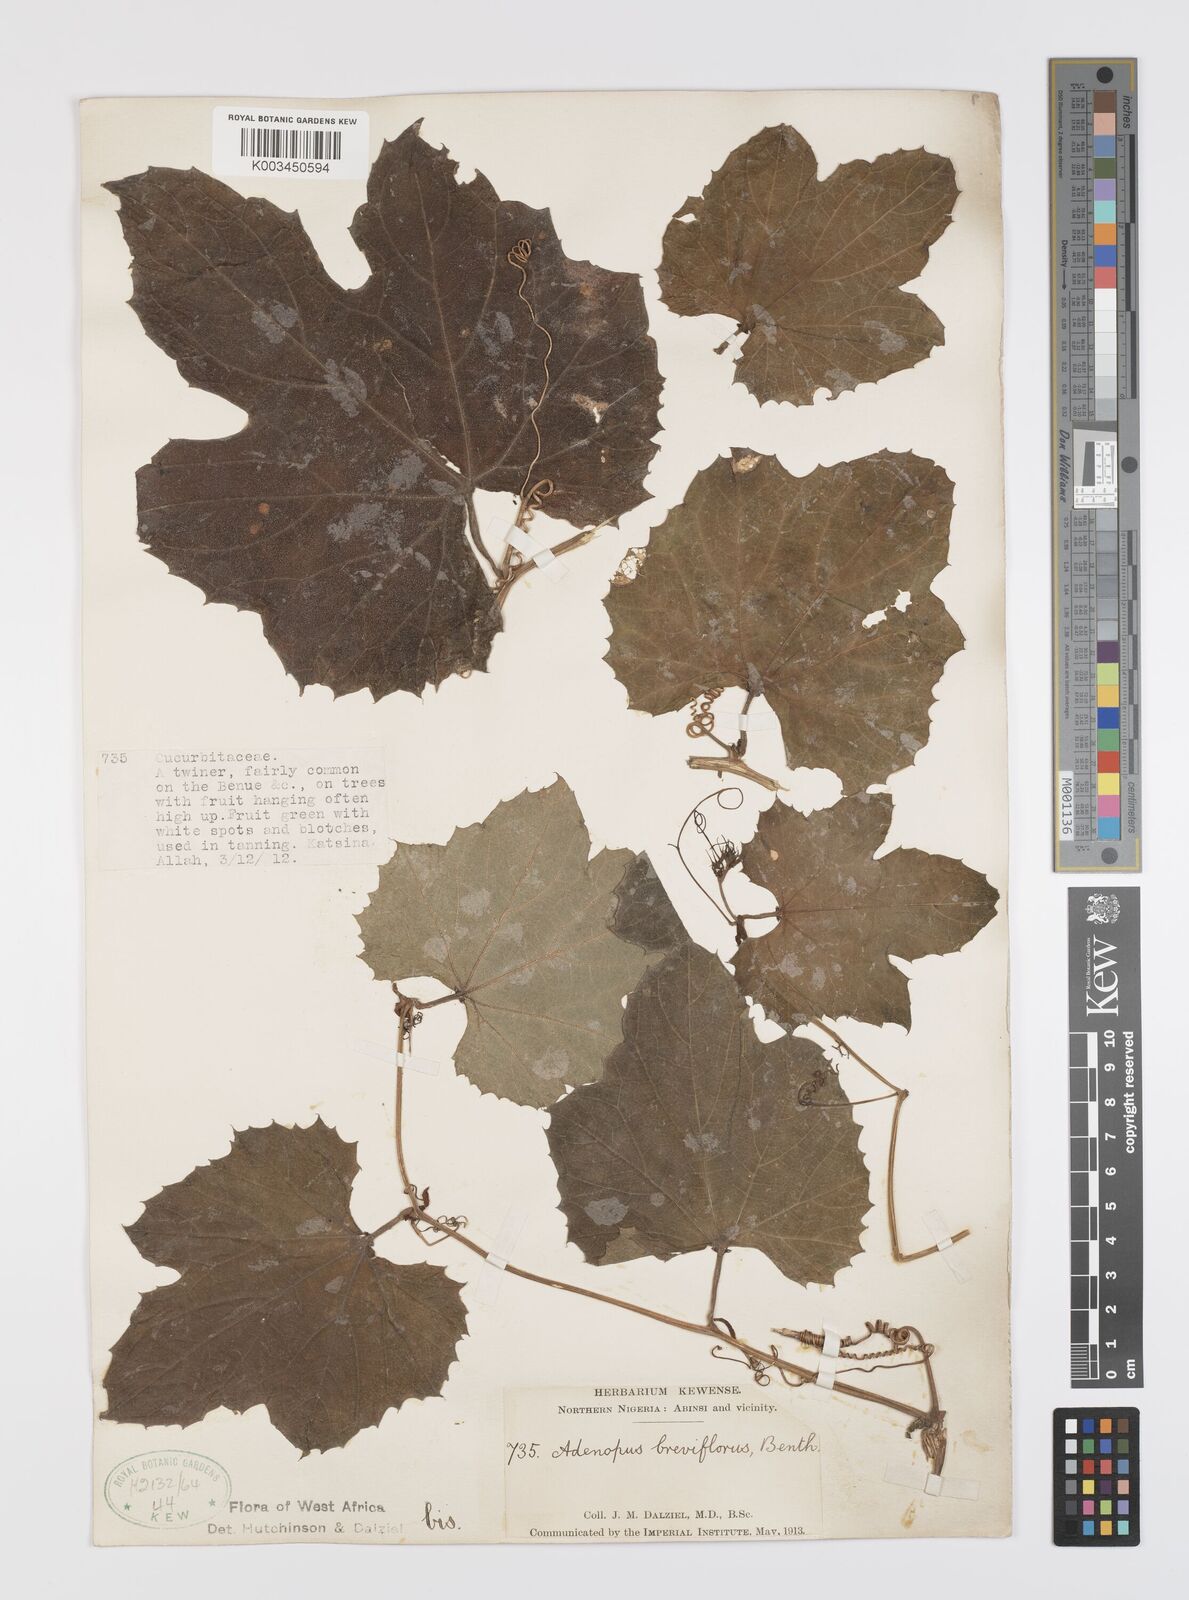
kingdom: Plantae
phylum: Tracheophyta
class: Magnoliopsida
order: Cucurbitales
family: Cucurbitaceae
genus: Lagenaria
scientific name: Lagenaria breviflora
